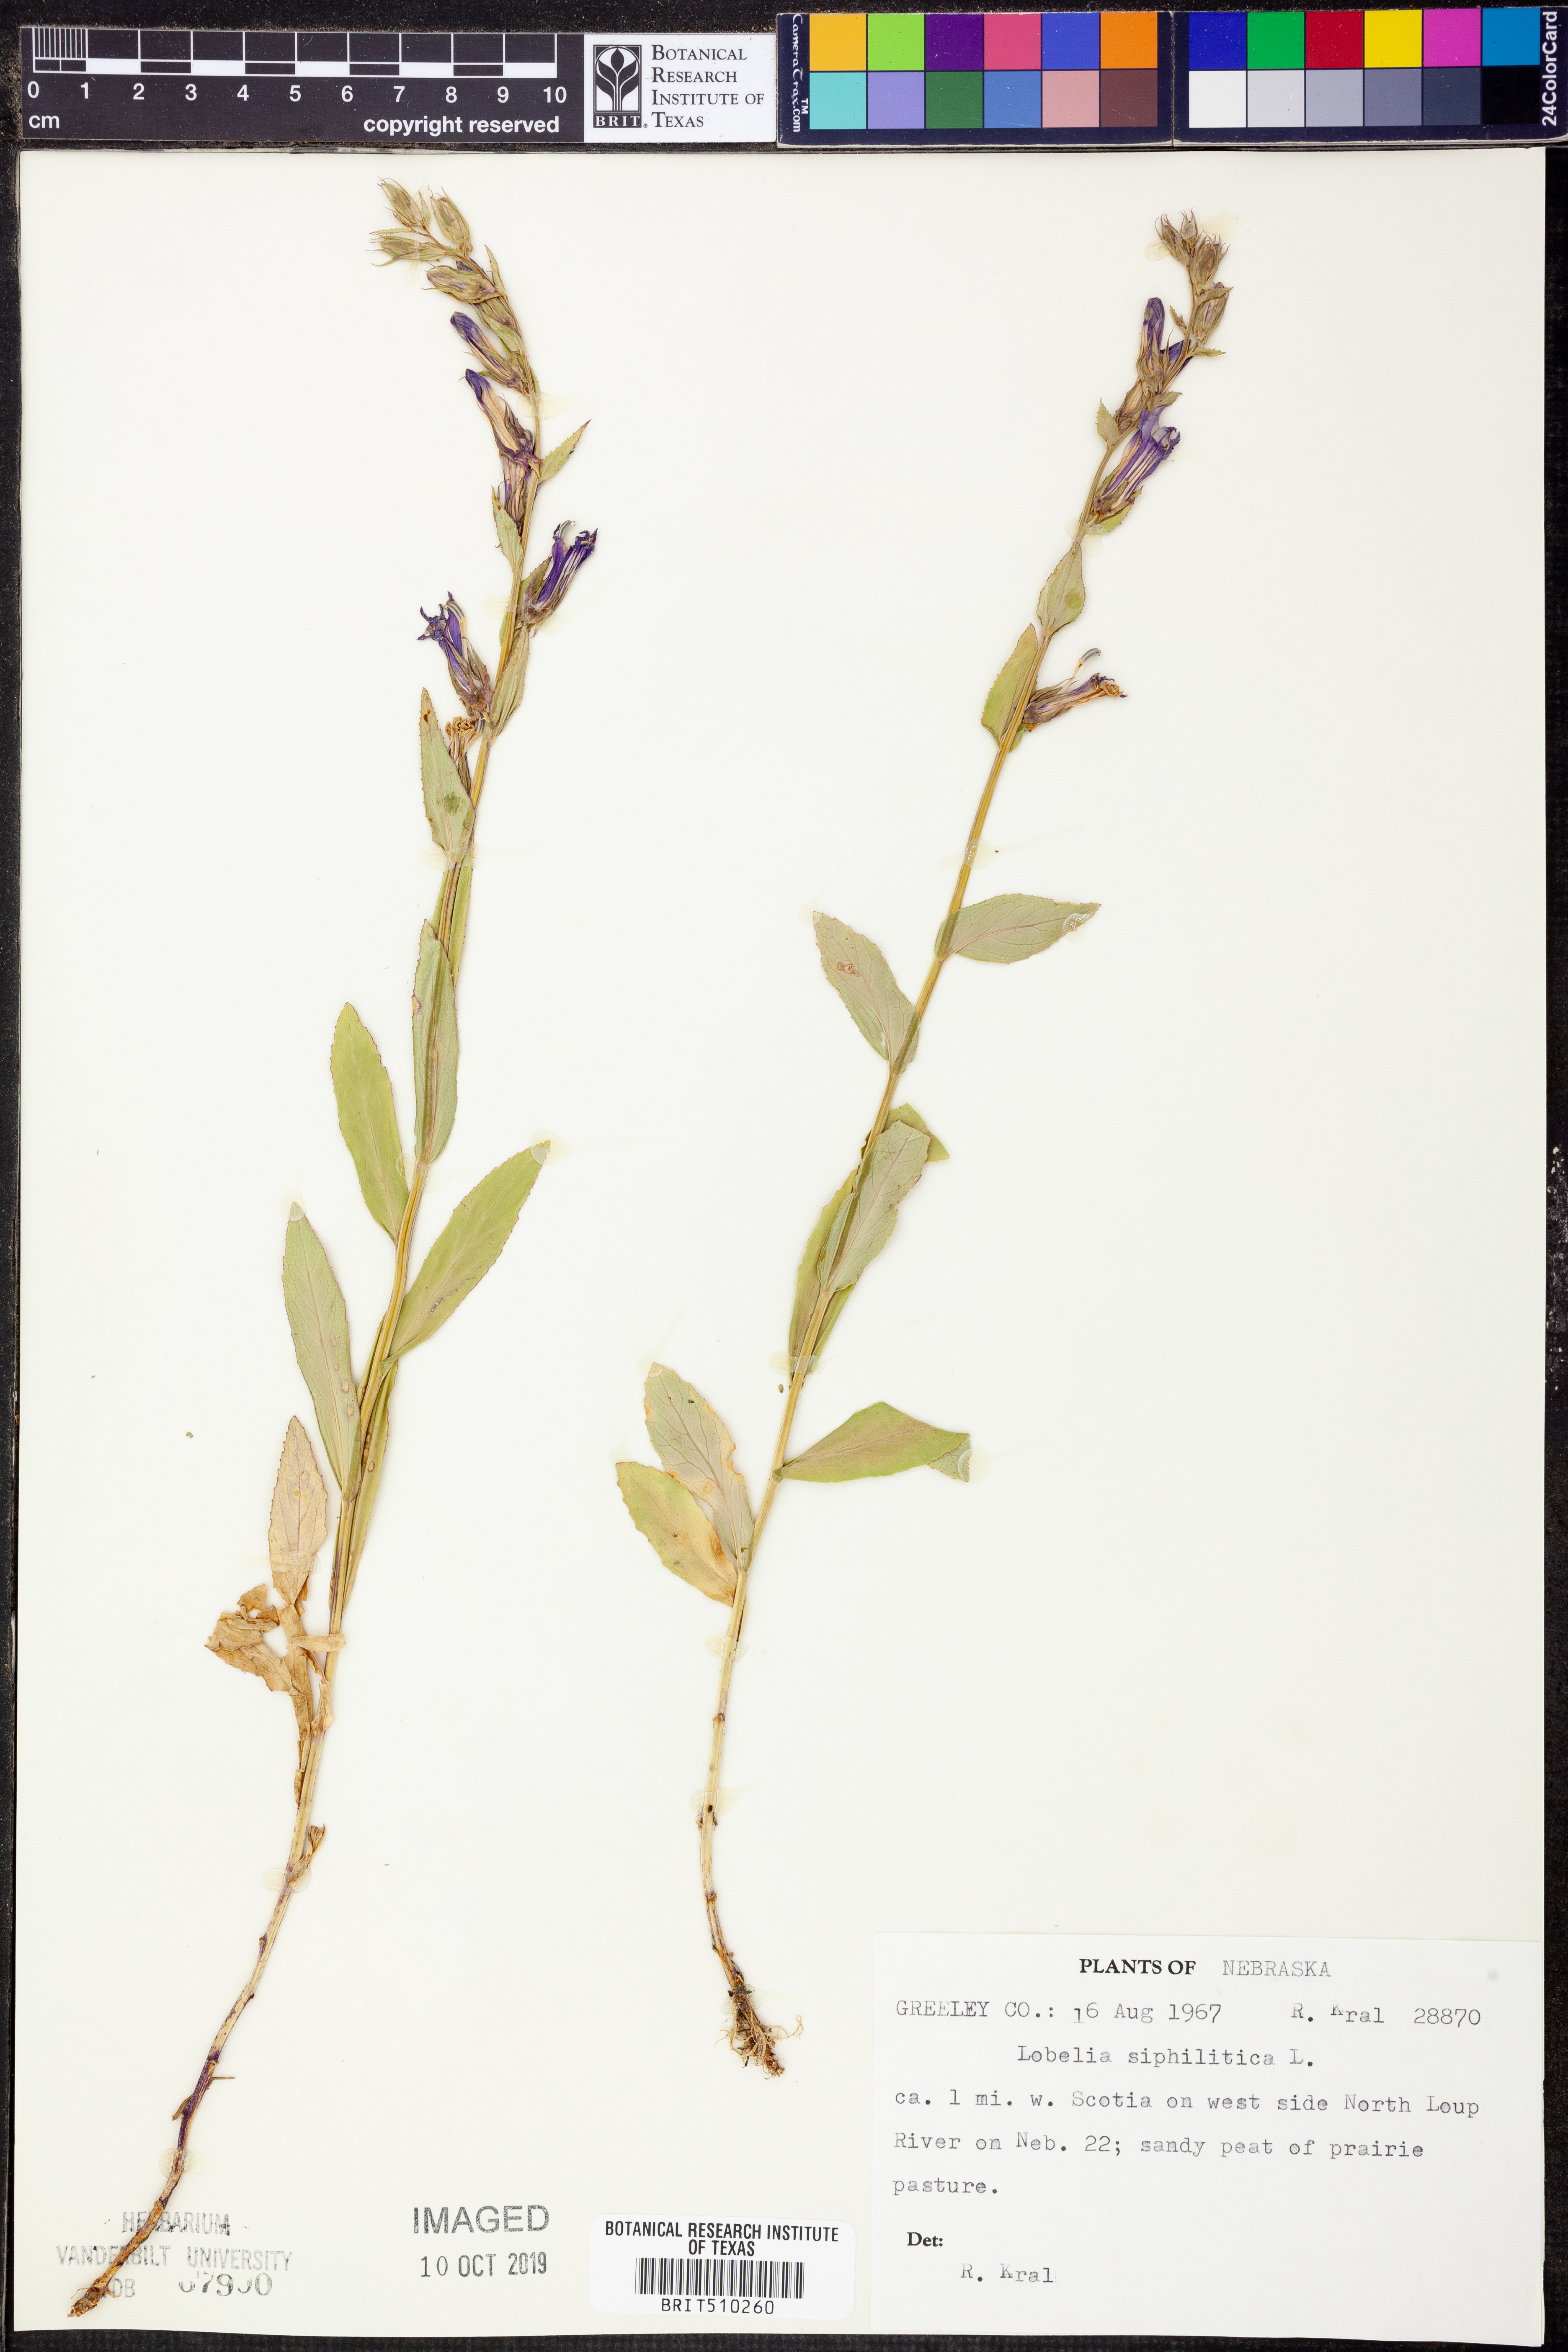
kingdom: Plantae
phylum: Tracheophyta
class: Magnoliopsida
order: Asterales
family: Campanulaceae
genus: Lobelia
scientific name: Lobelia siphilitica
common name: Great lobelia
